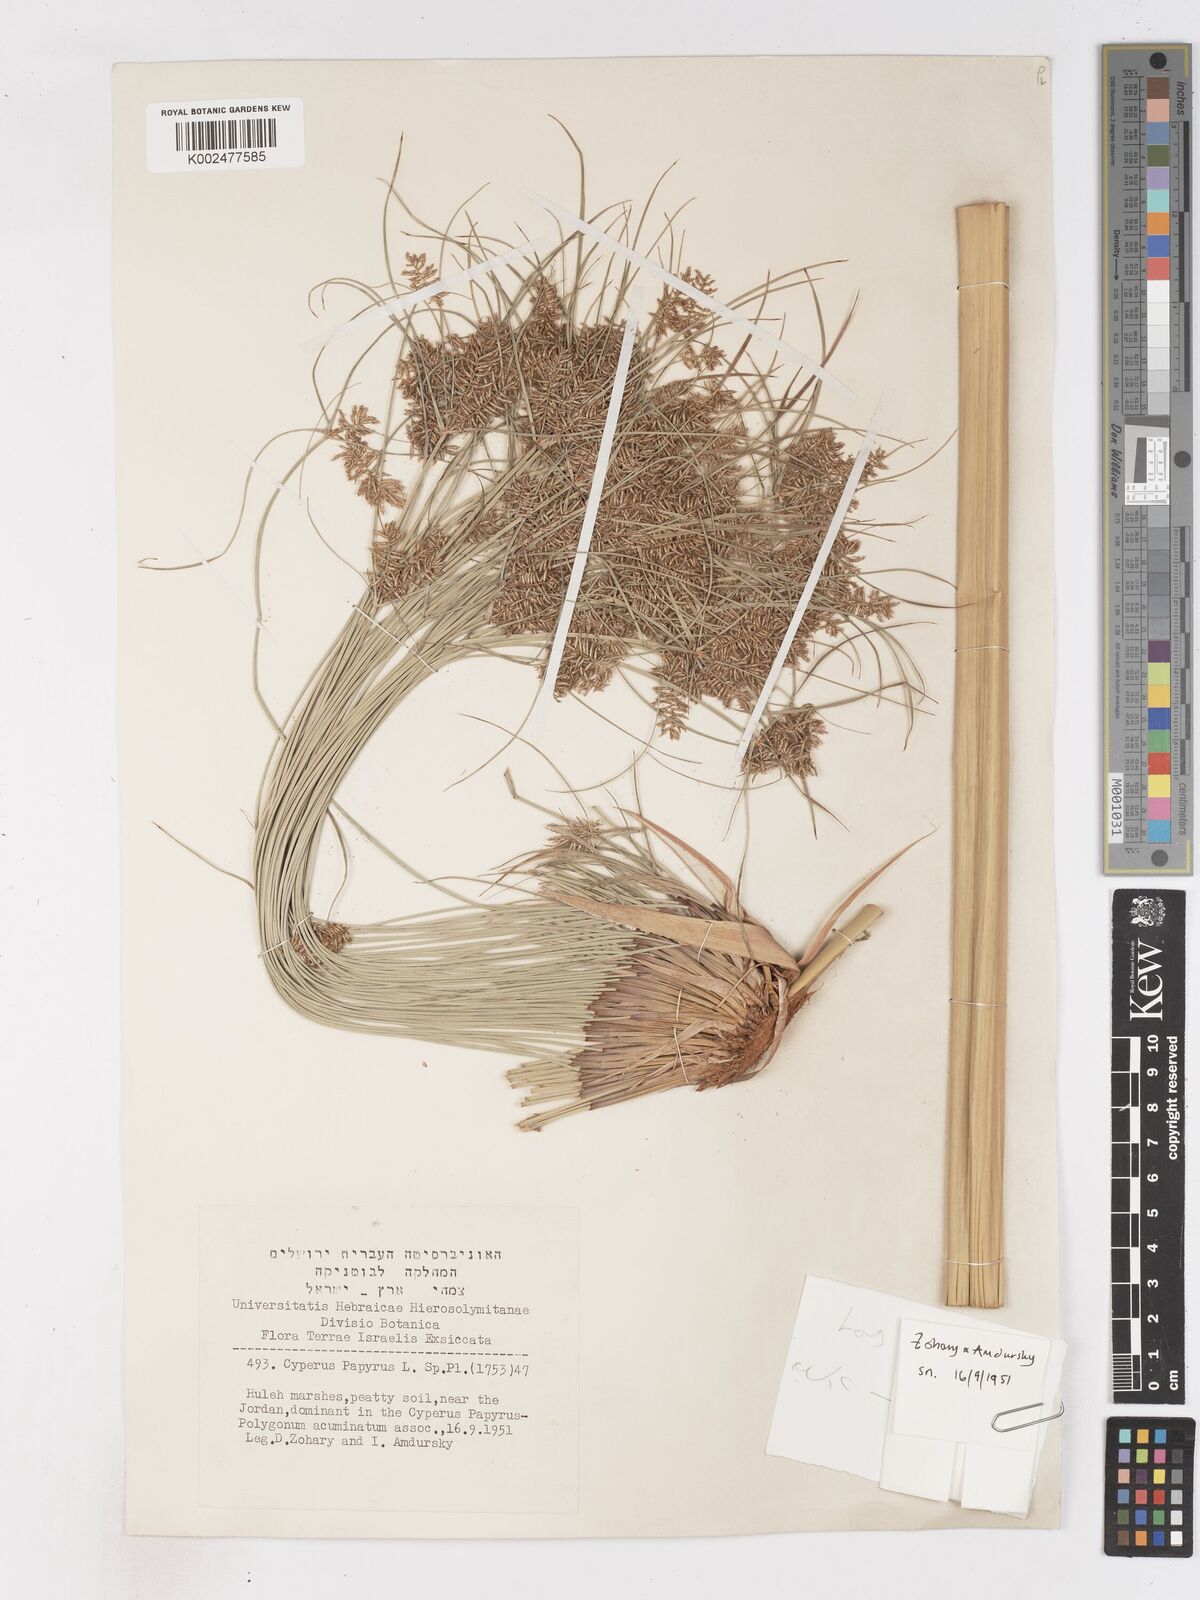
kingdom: Plantae
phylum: Tracheophyta
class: Liliopsida
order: Poales
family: Cyperaceae
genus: Cyperus
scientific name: Cyperus papyrus
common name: Papyrus
